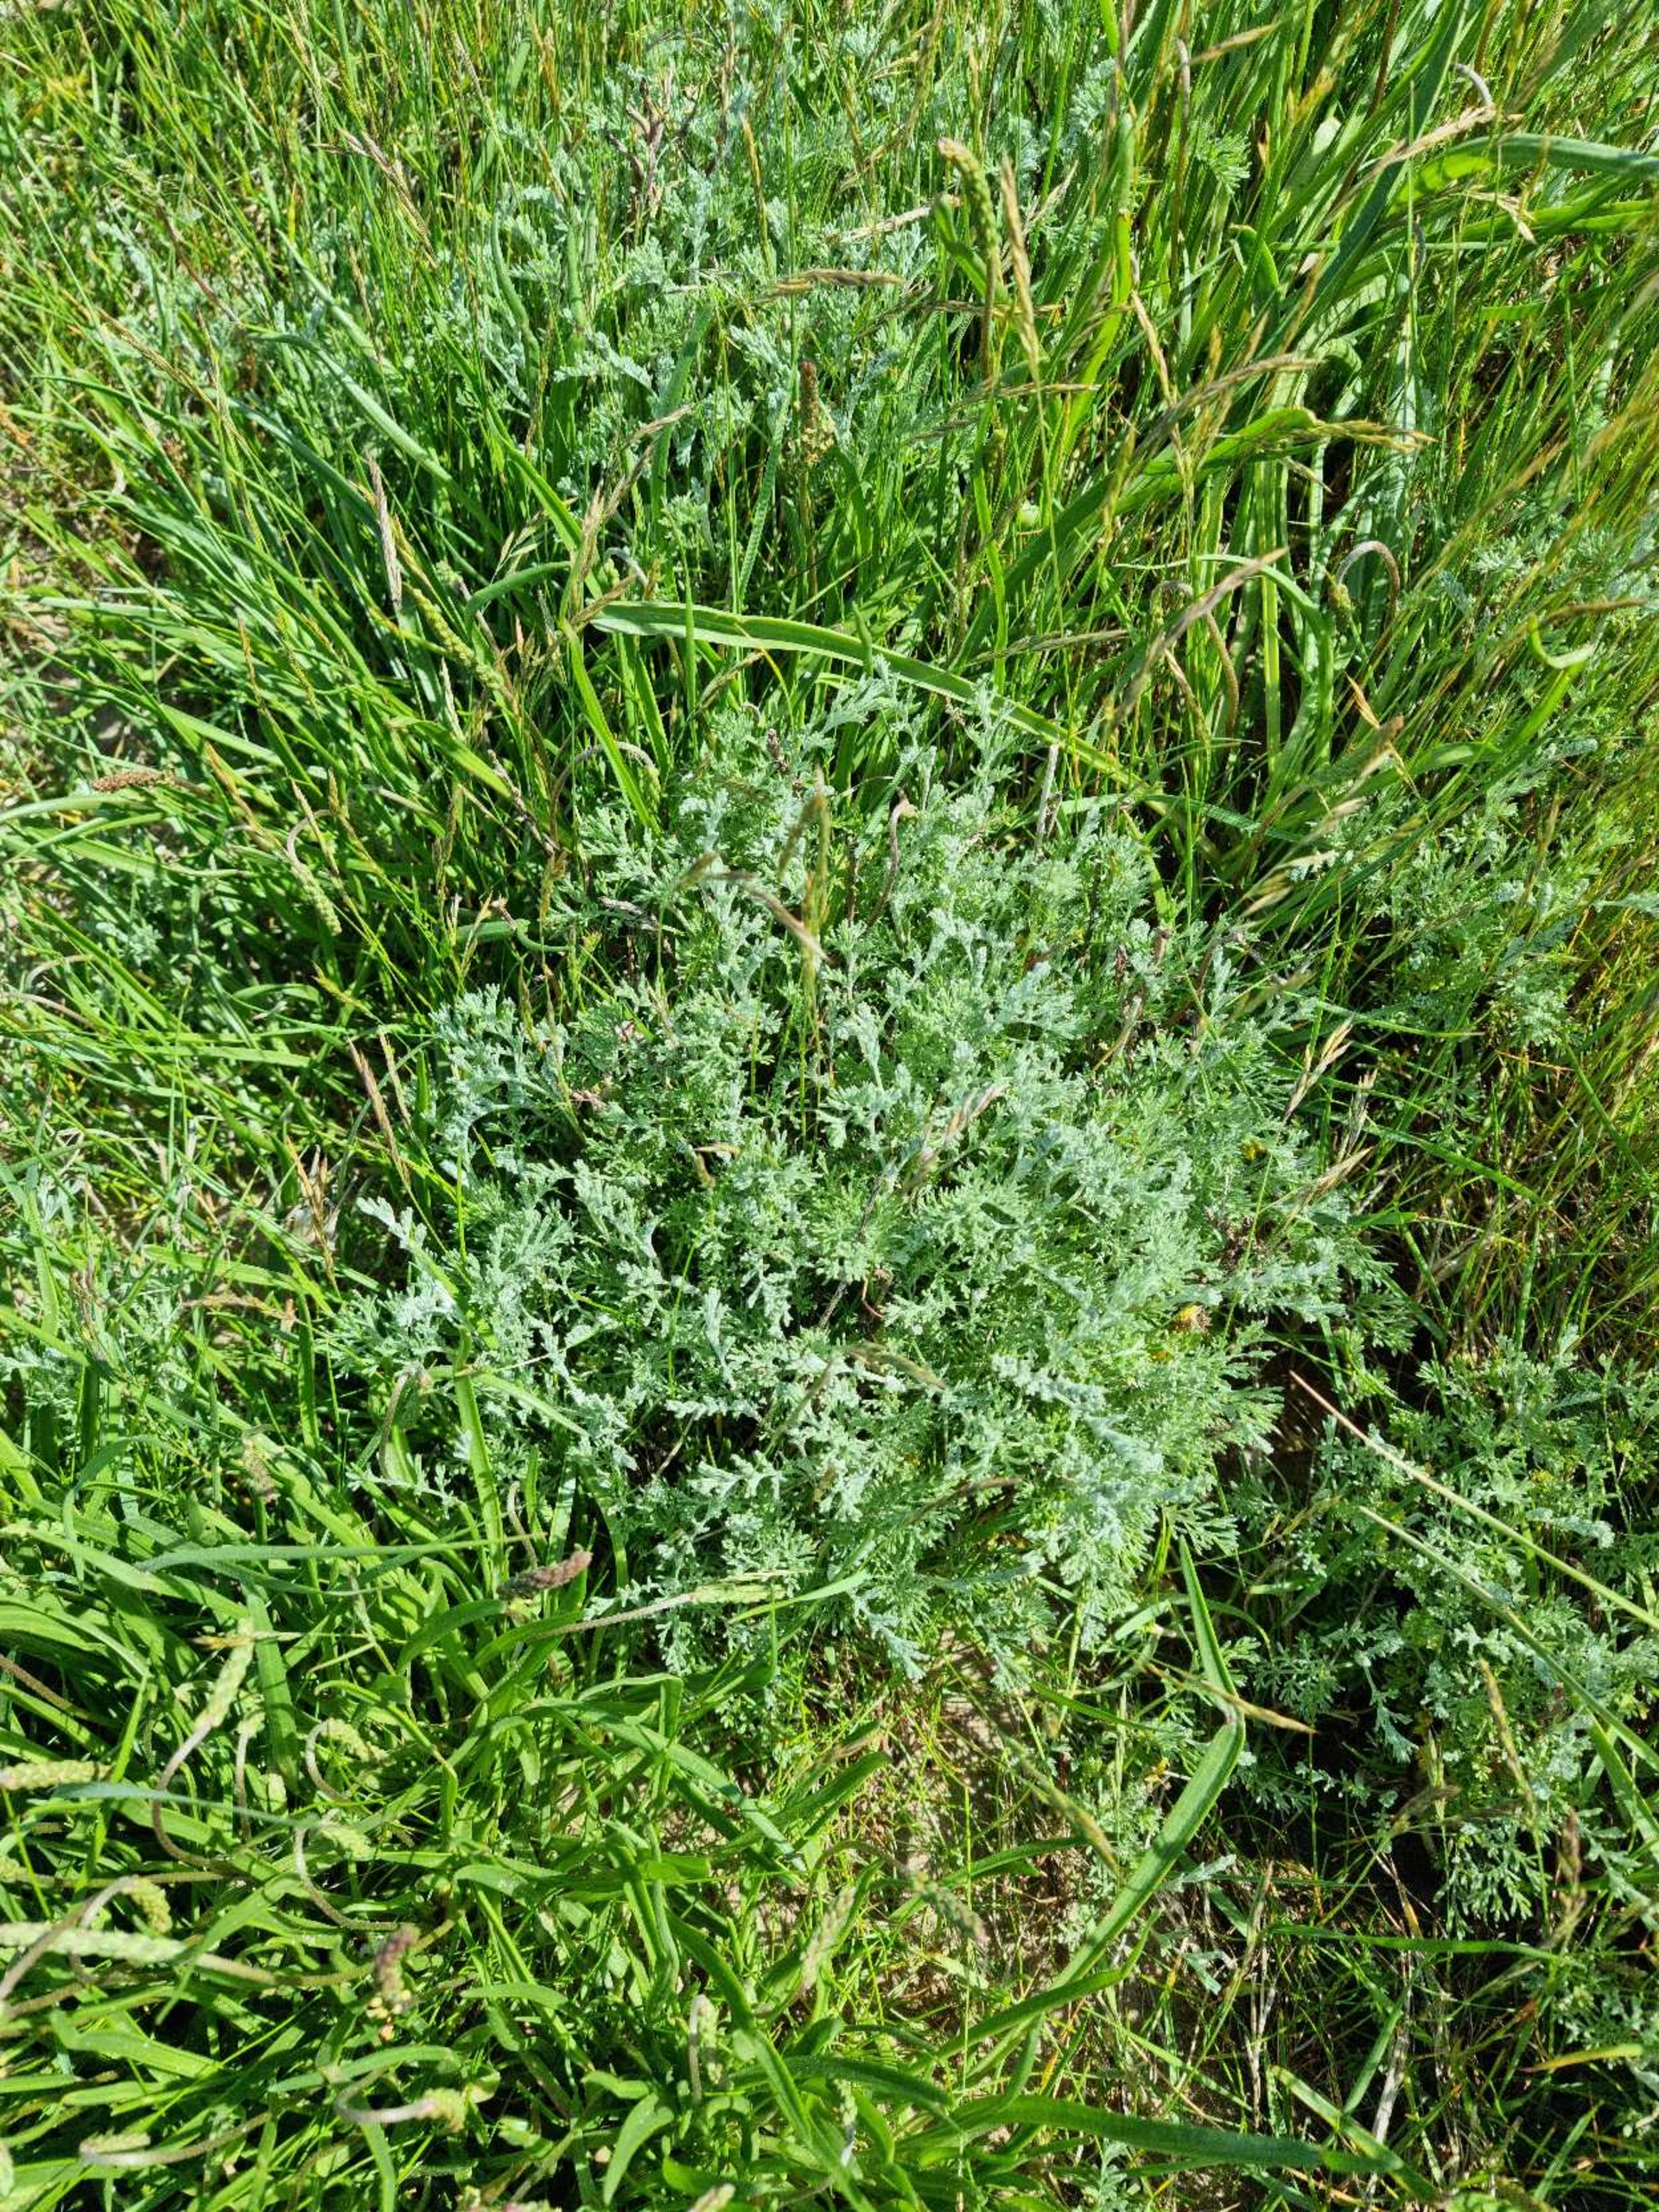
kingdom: Plantae
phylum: Tracheophyta
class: Magnoliopsida
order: Asterales
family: Asteraceae
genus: Artemisia
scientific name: Artemisia campestris
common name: Mark-bynke
